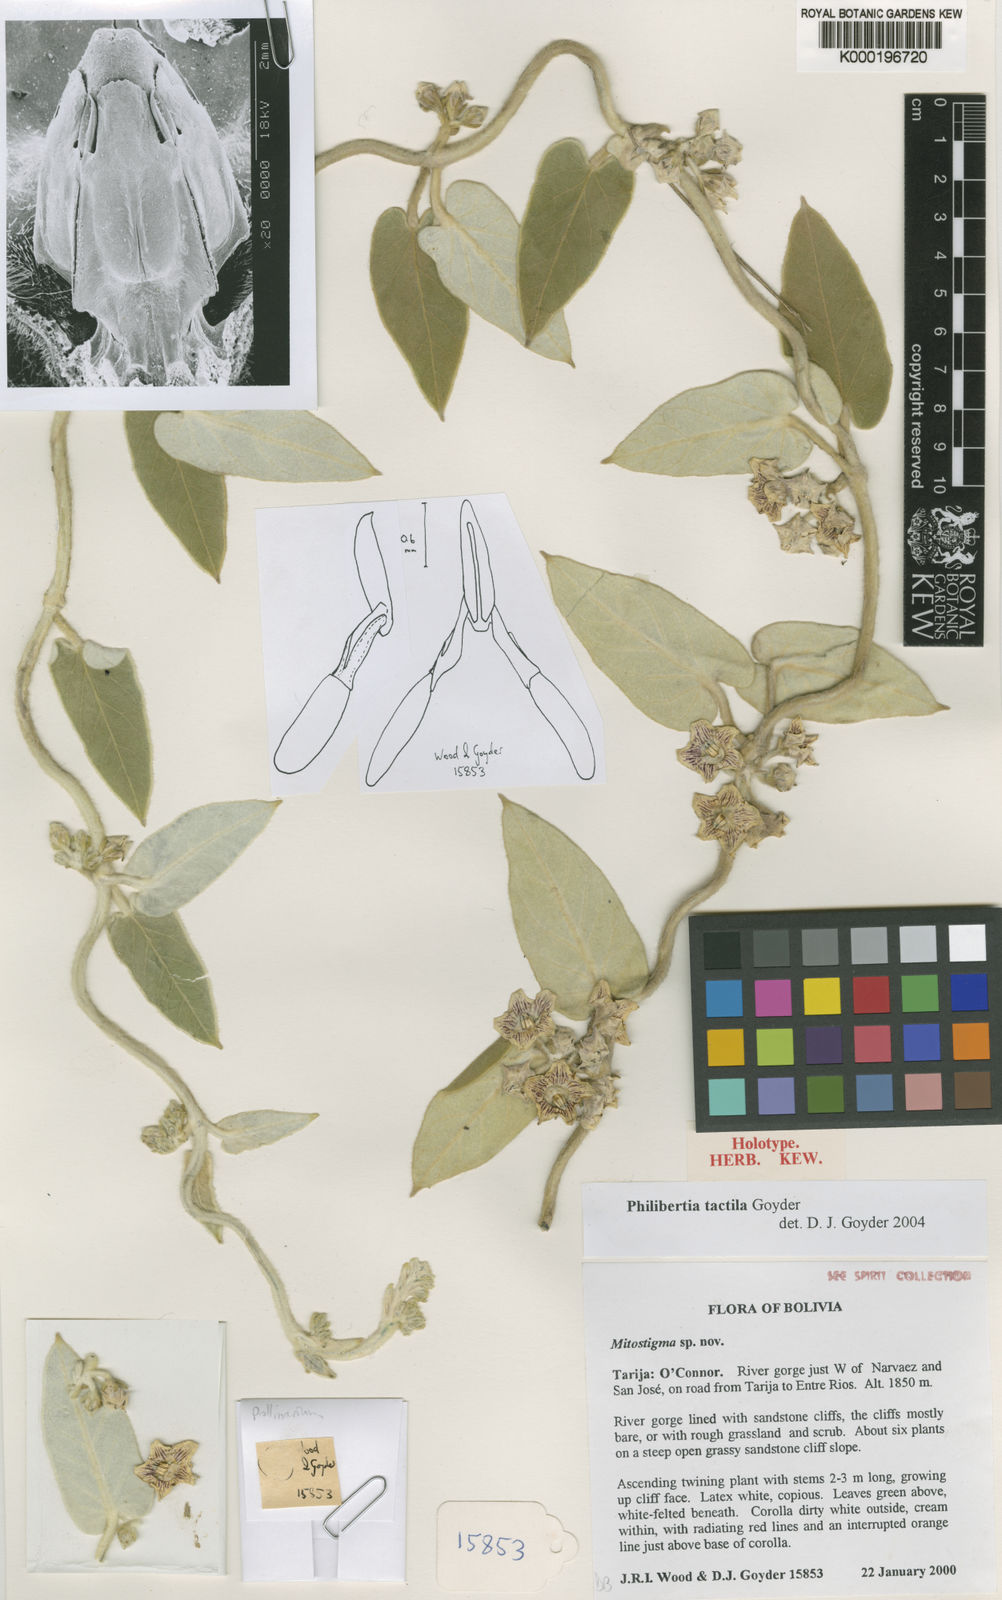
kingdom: Plantae
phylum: Tracheophyta
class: Magnoliopsida
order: Gentianales
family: Apocynaceae
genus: Philibertia
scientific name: Philibertia tactila
